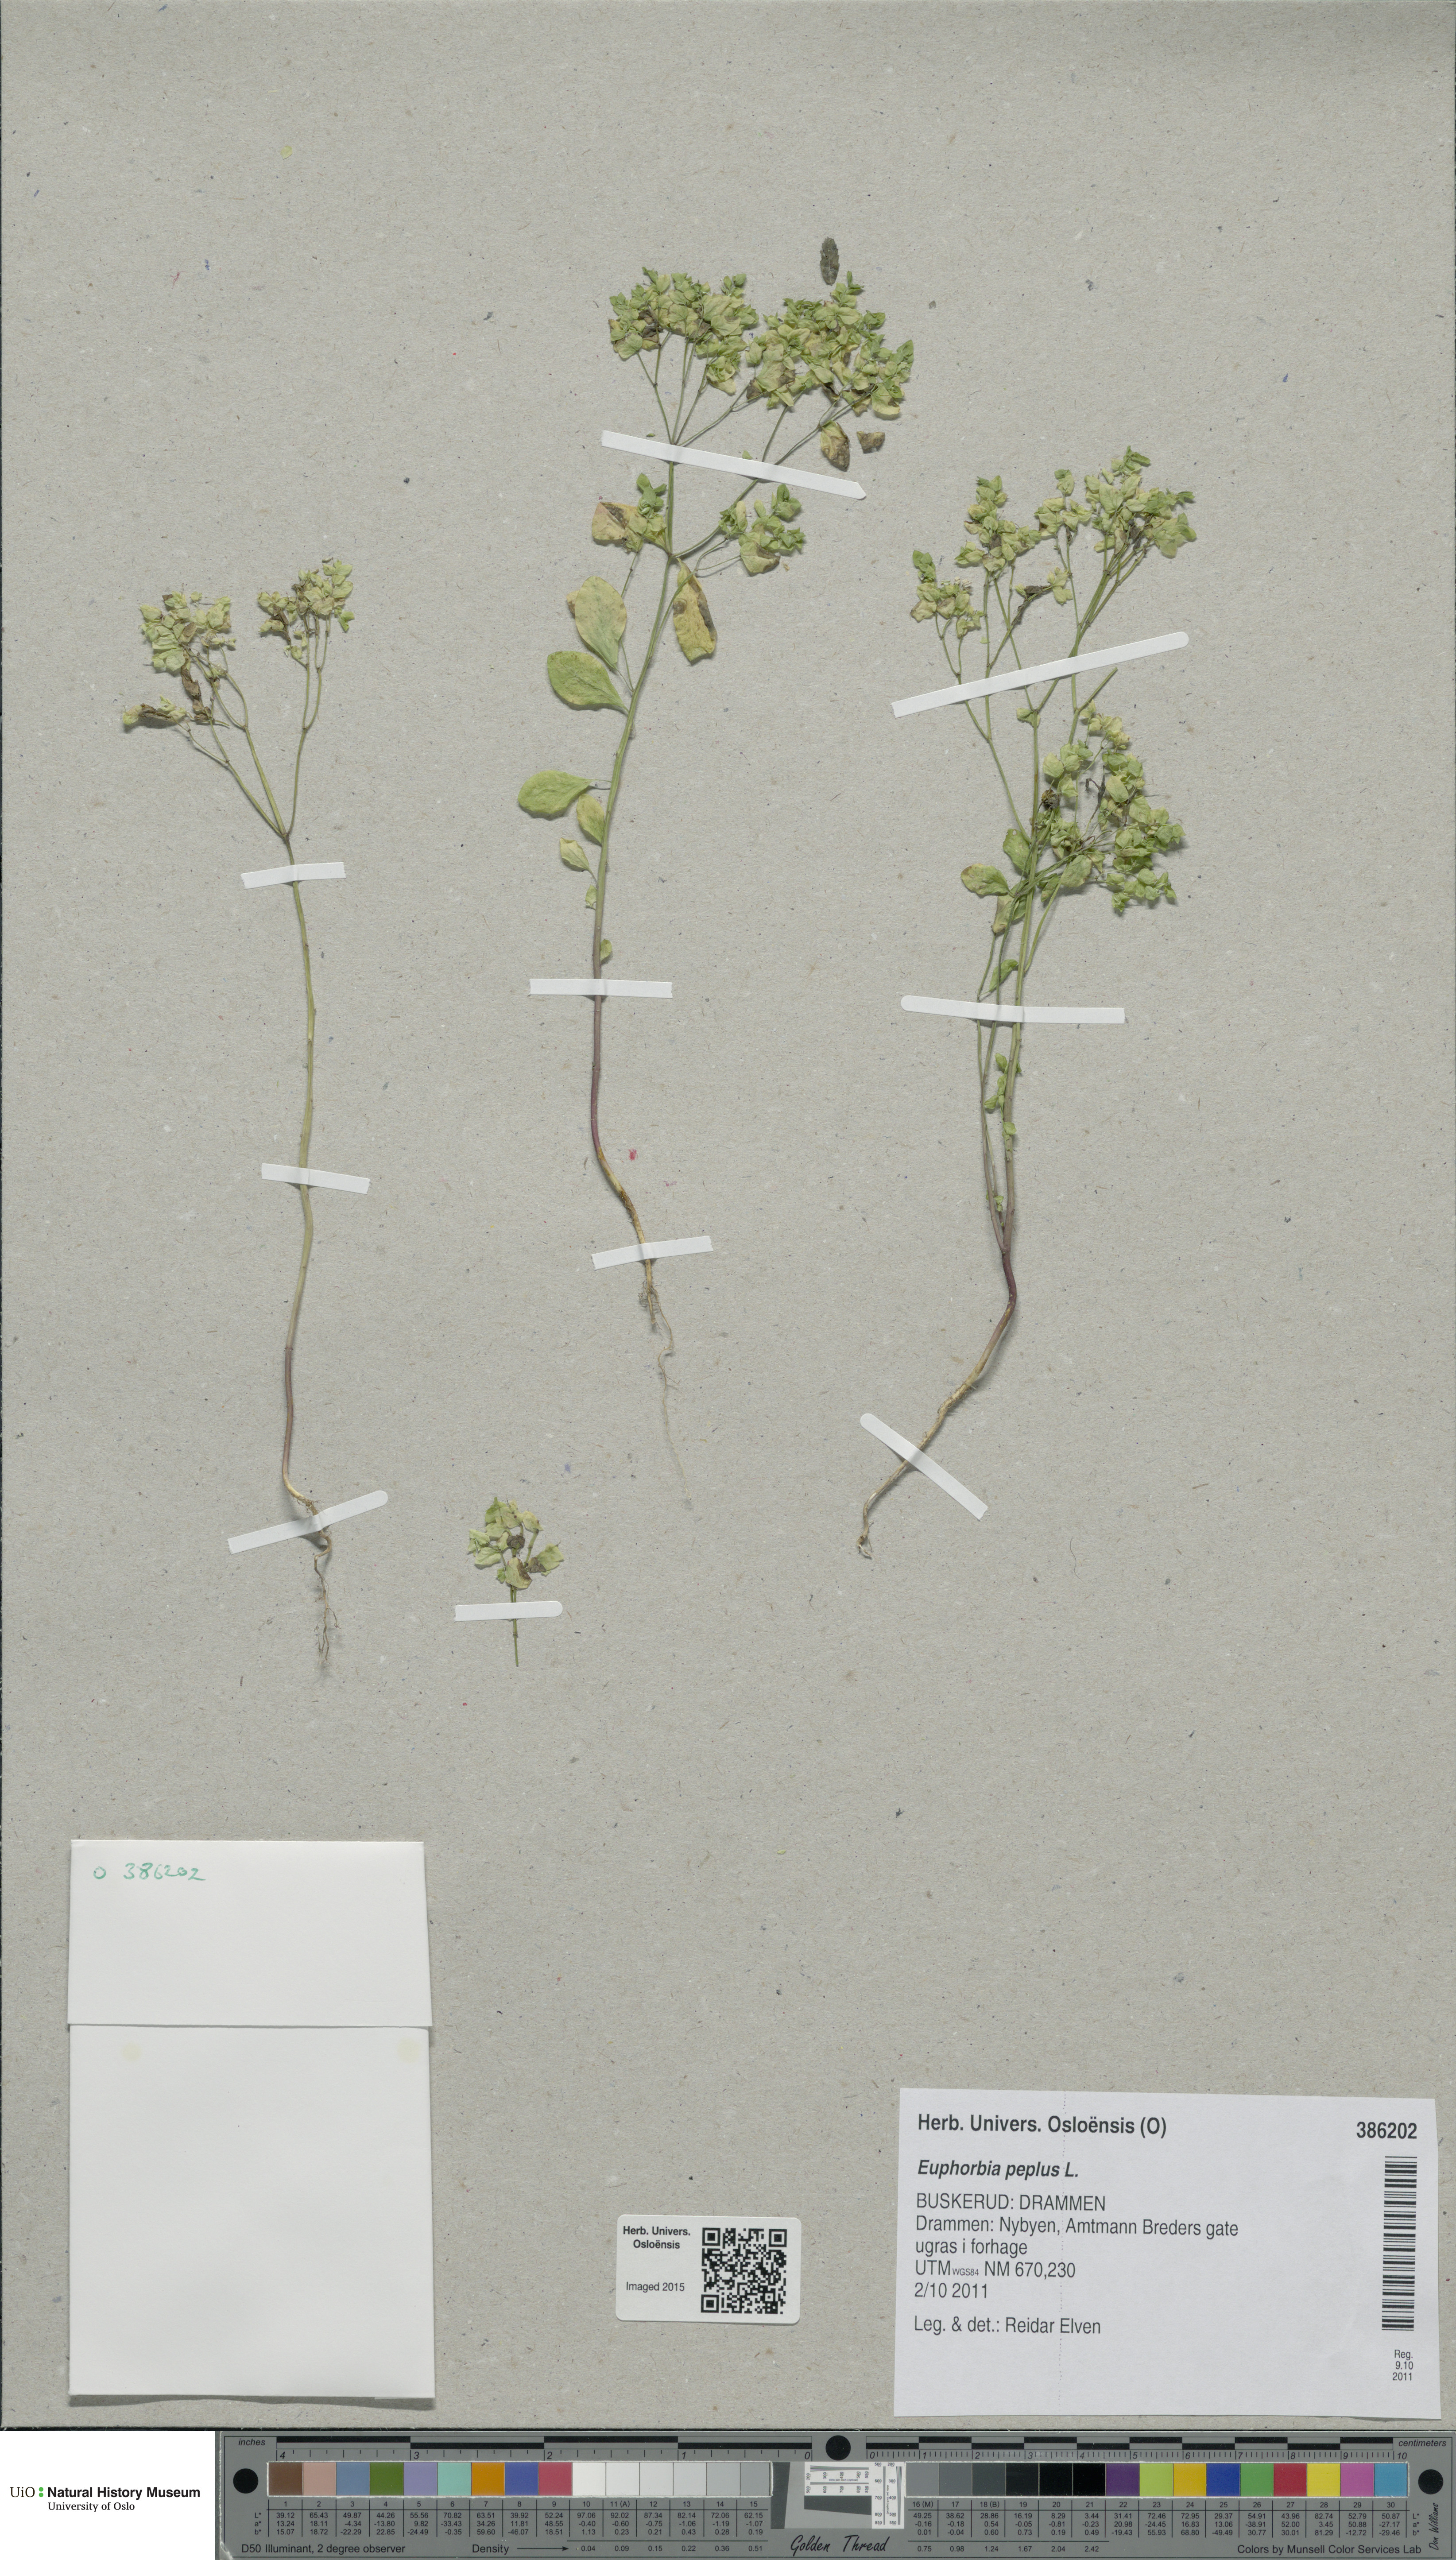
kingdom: Plantae
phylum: Tracheophyta
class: Magnoliopsida
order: Malpighiales
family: Euphorbiaceae
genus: Euphorbia
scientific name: Euphorbia peplus
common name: Petty spurge
